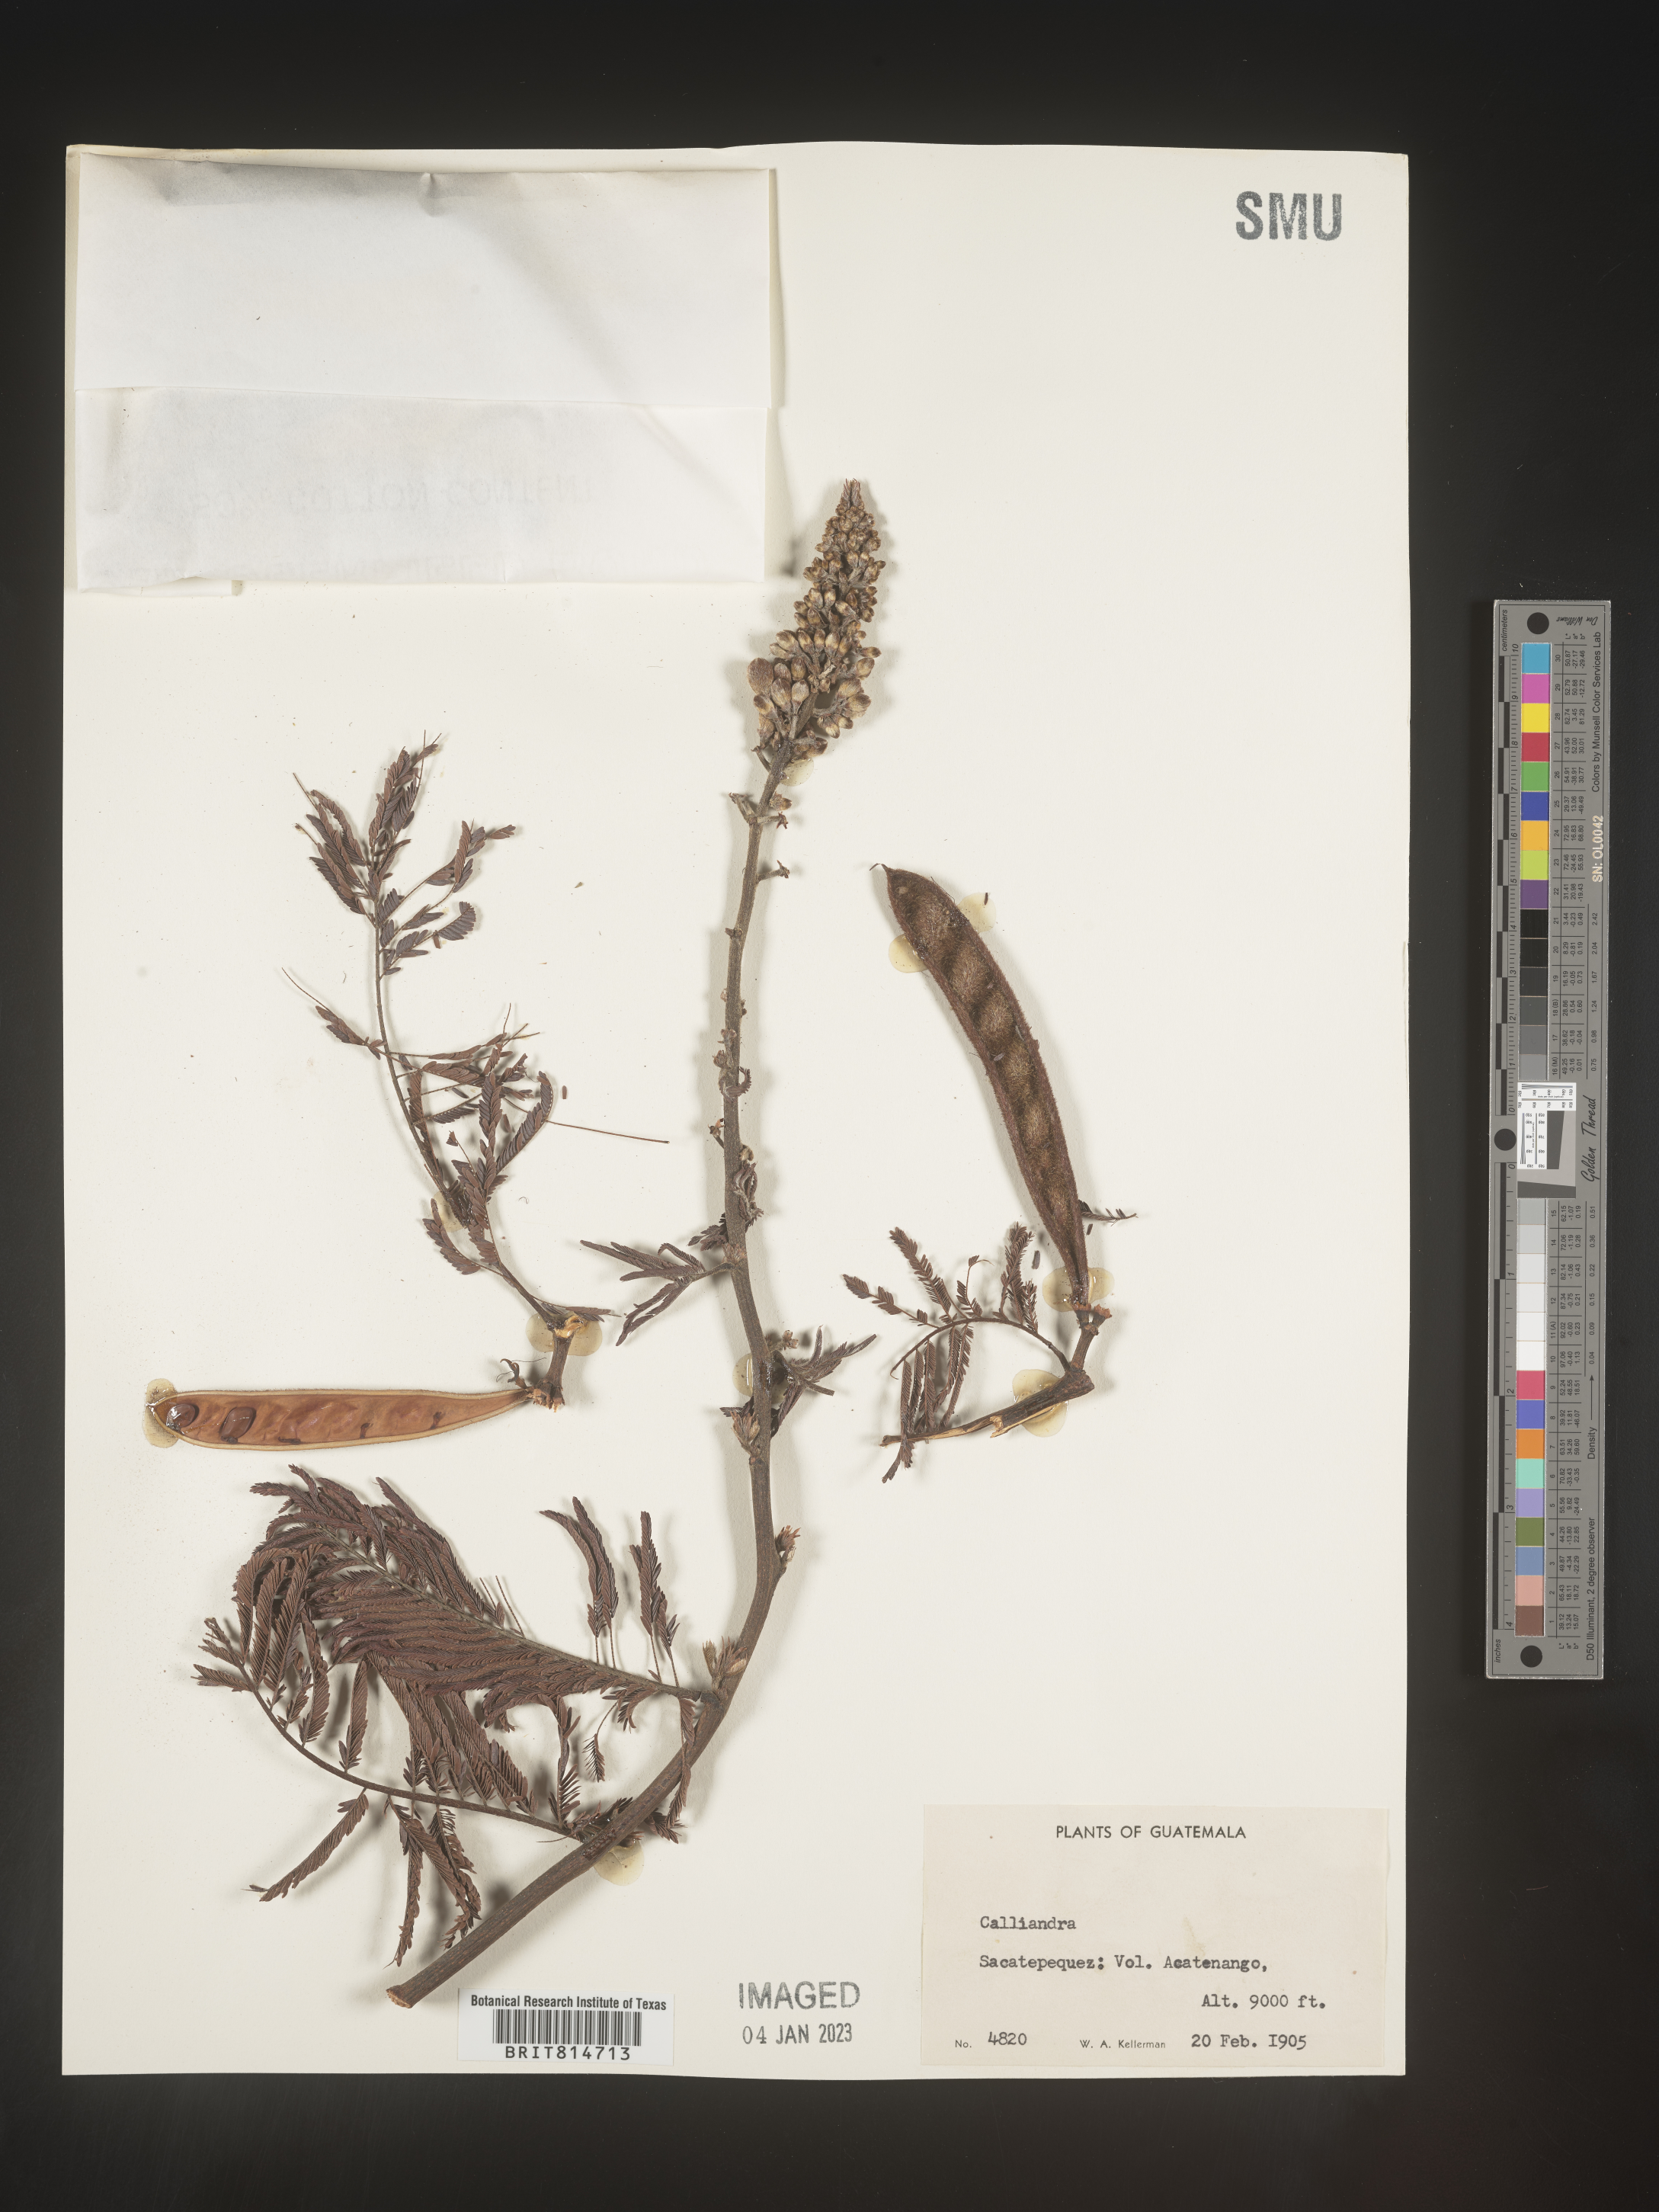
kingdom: Plantae
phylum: Tracheophyta
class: Magnoliopsida
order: Fabales
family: Fabaceae
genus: Calliandra
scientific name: Calliandra
